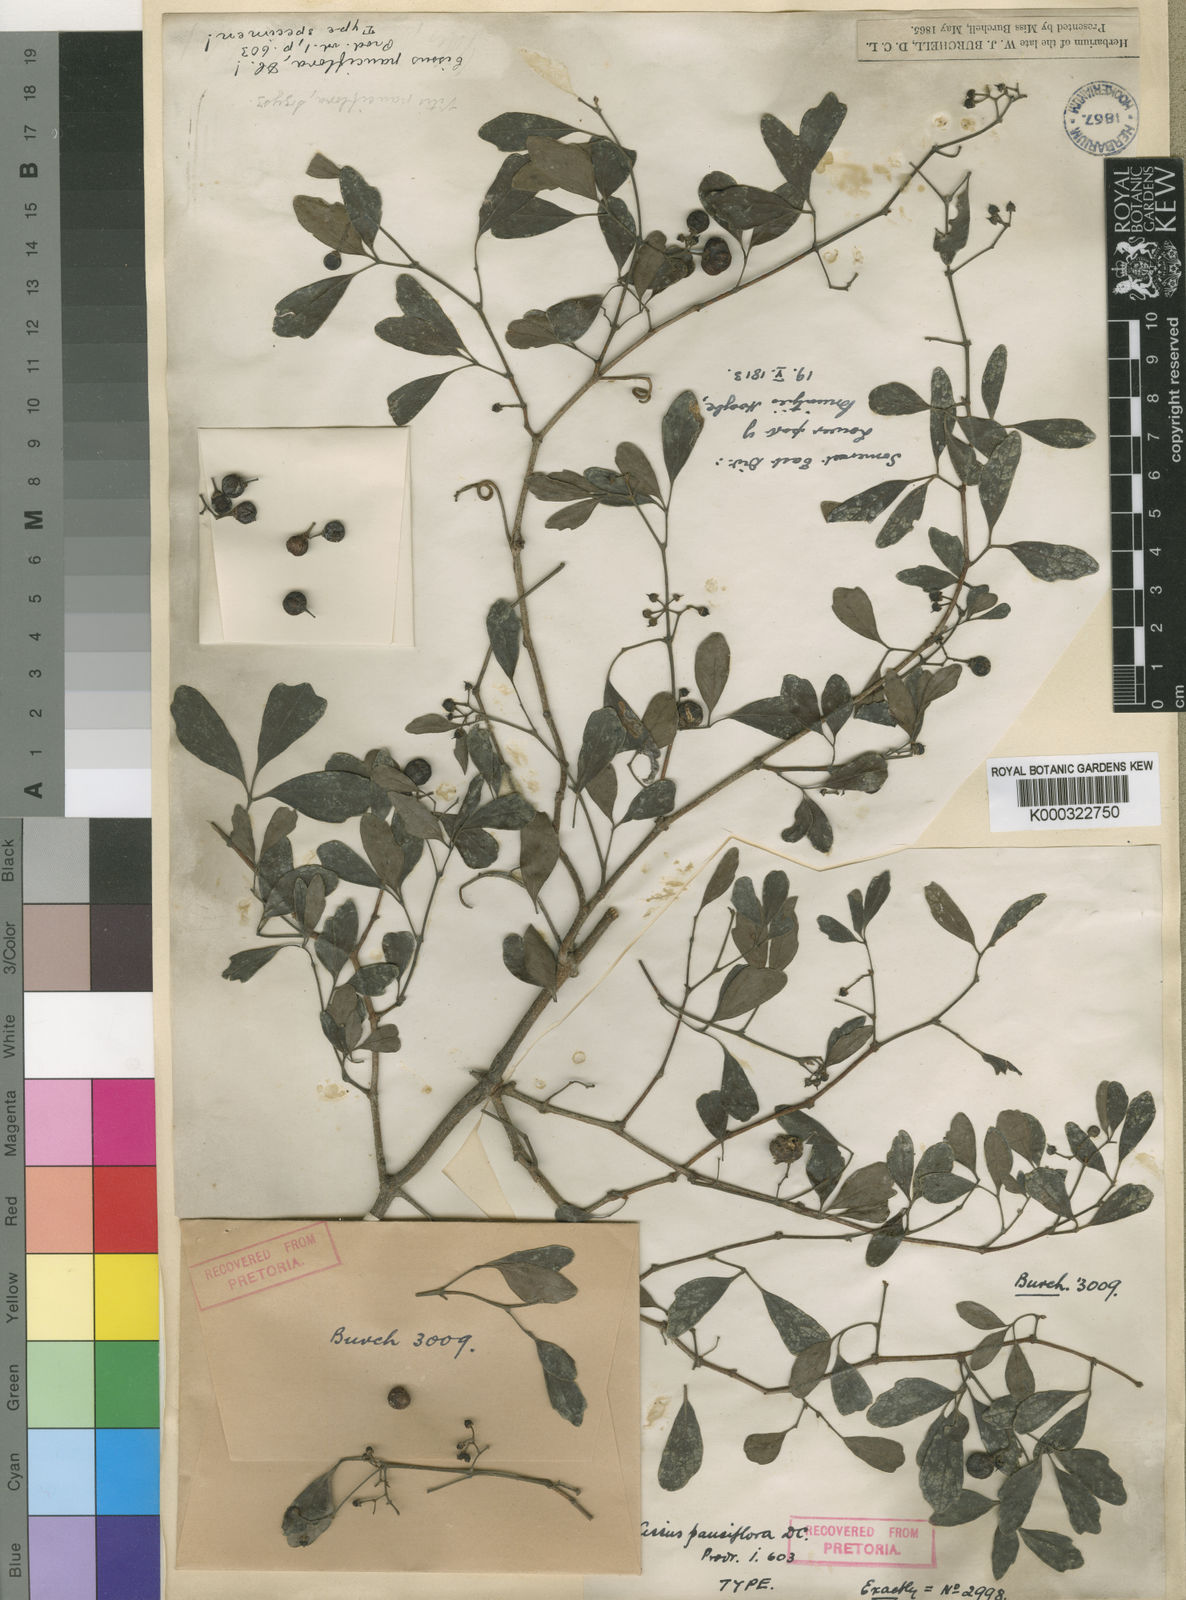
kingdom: Plantae
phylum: Tracheophyta
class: Magnoliopsida
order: Vitales
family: Vitaceae
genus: Rhoicissus
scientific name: Rhoicissus digitata
